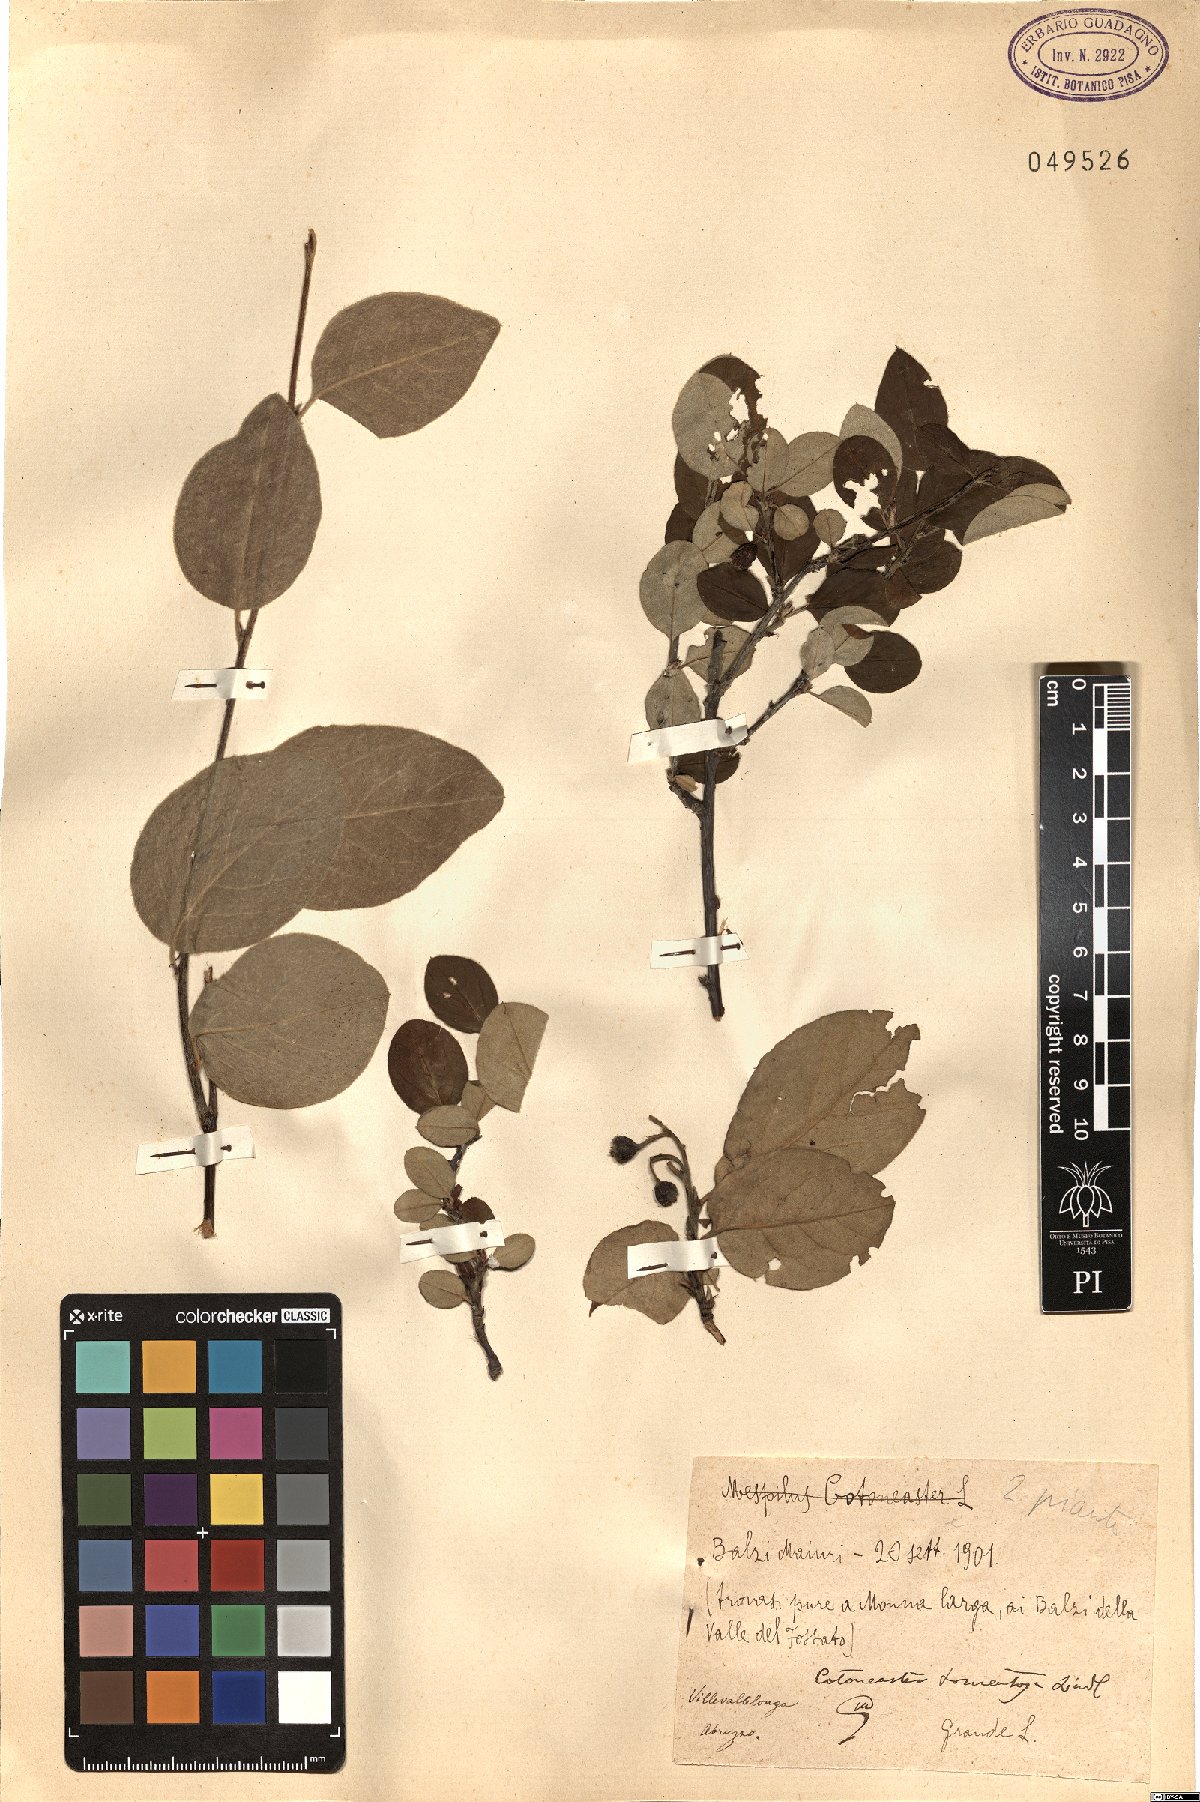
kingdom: Plantae
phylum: Tracheophyta
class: Magnoliopsida
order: Rosales
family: Rosaceae
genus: Cotoneaster
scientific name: Cotoneaster tomentosus
